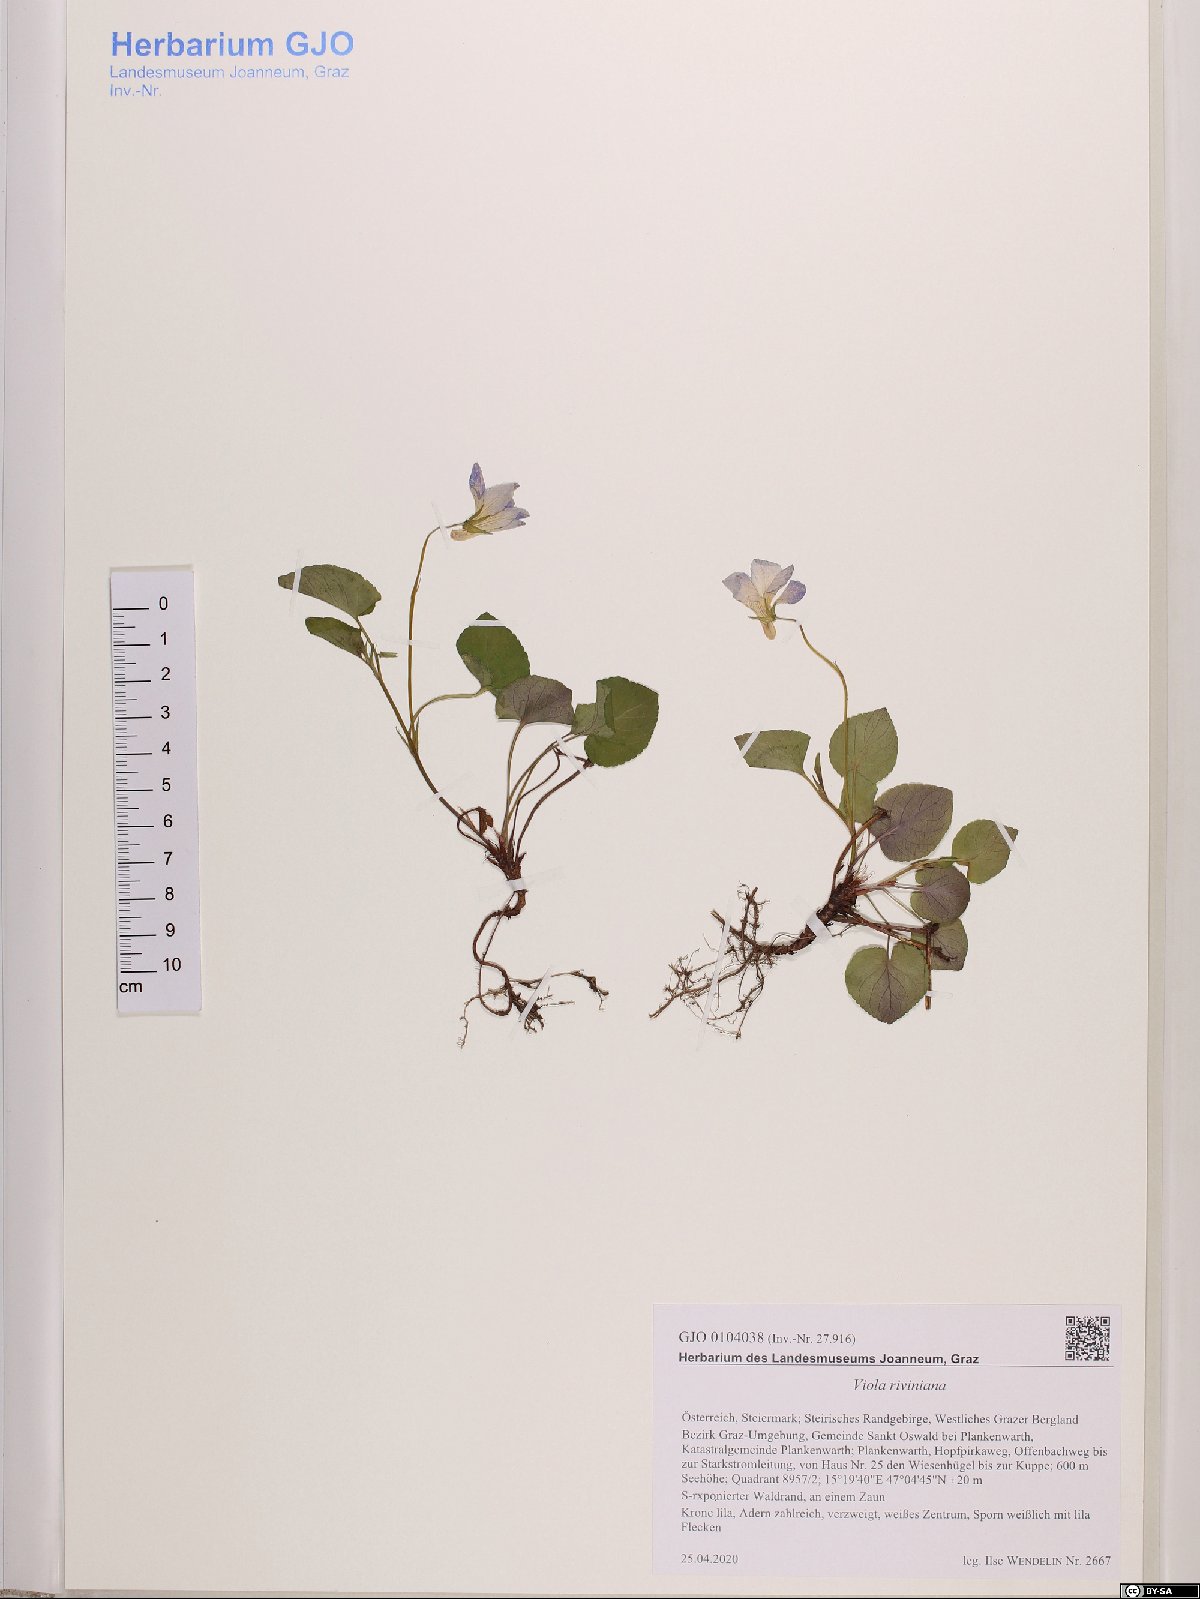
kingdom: Plantae
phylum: Tracheophyta
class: Magnoliopsida
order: Malpighiales
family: Violaceae
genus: Viola
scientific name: Viola riviniana
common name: Common dog-violet
